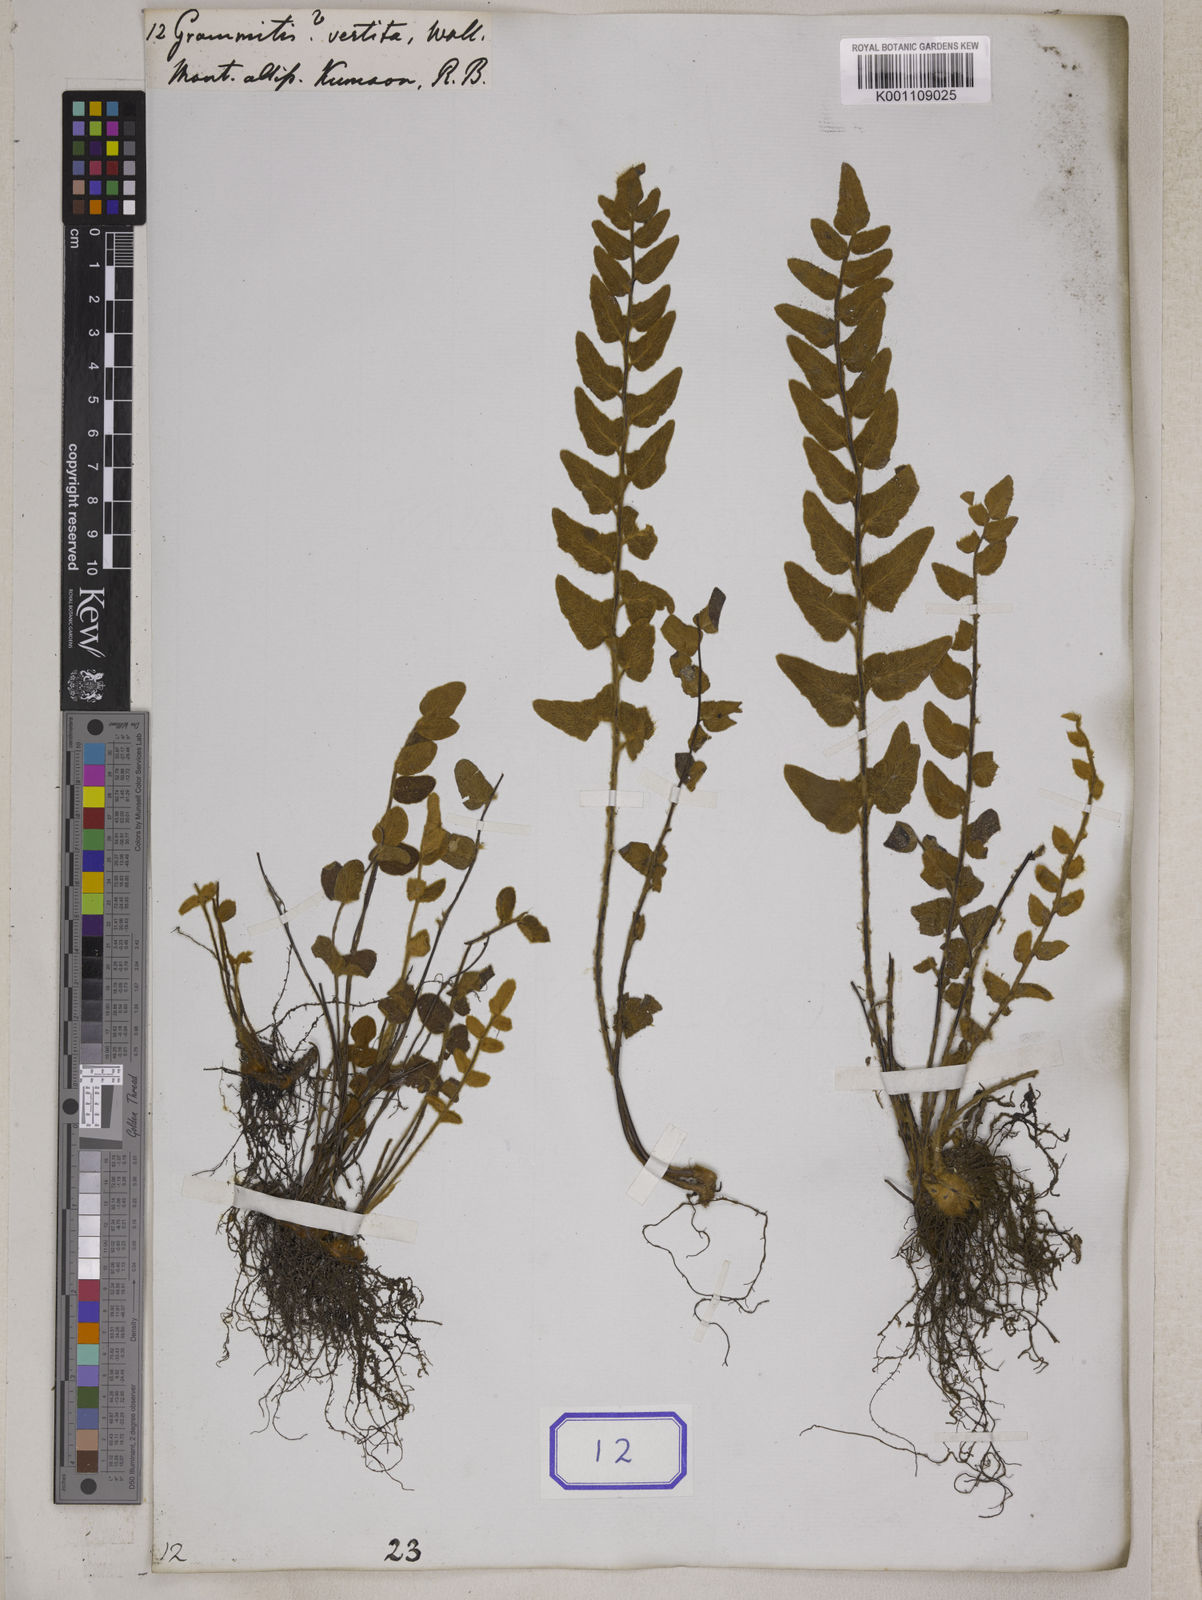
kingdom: Plantae
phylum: Tracheophyta
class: Polypodiopsida
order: Polypodiales
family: Pteridaceae
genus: Paragymnopteris
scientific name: Paragymnopteris vestita
